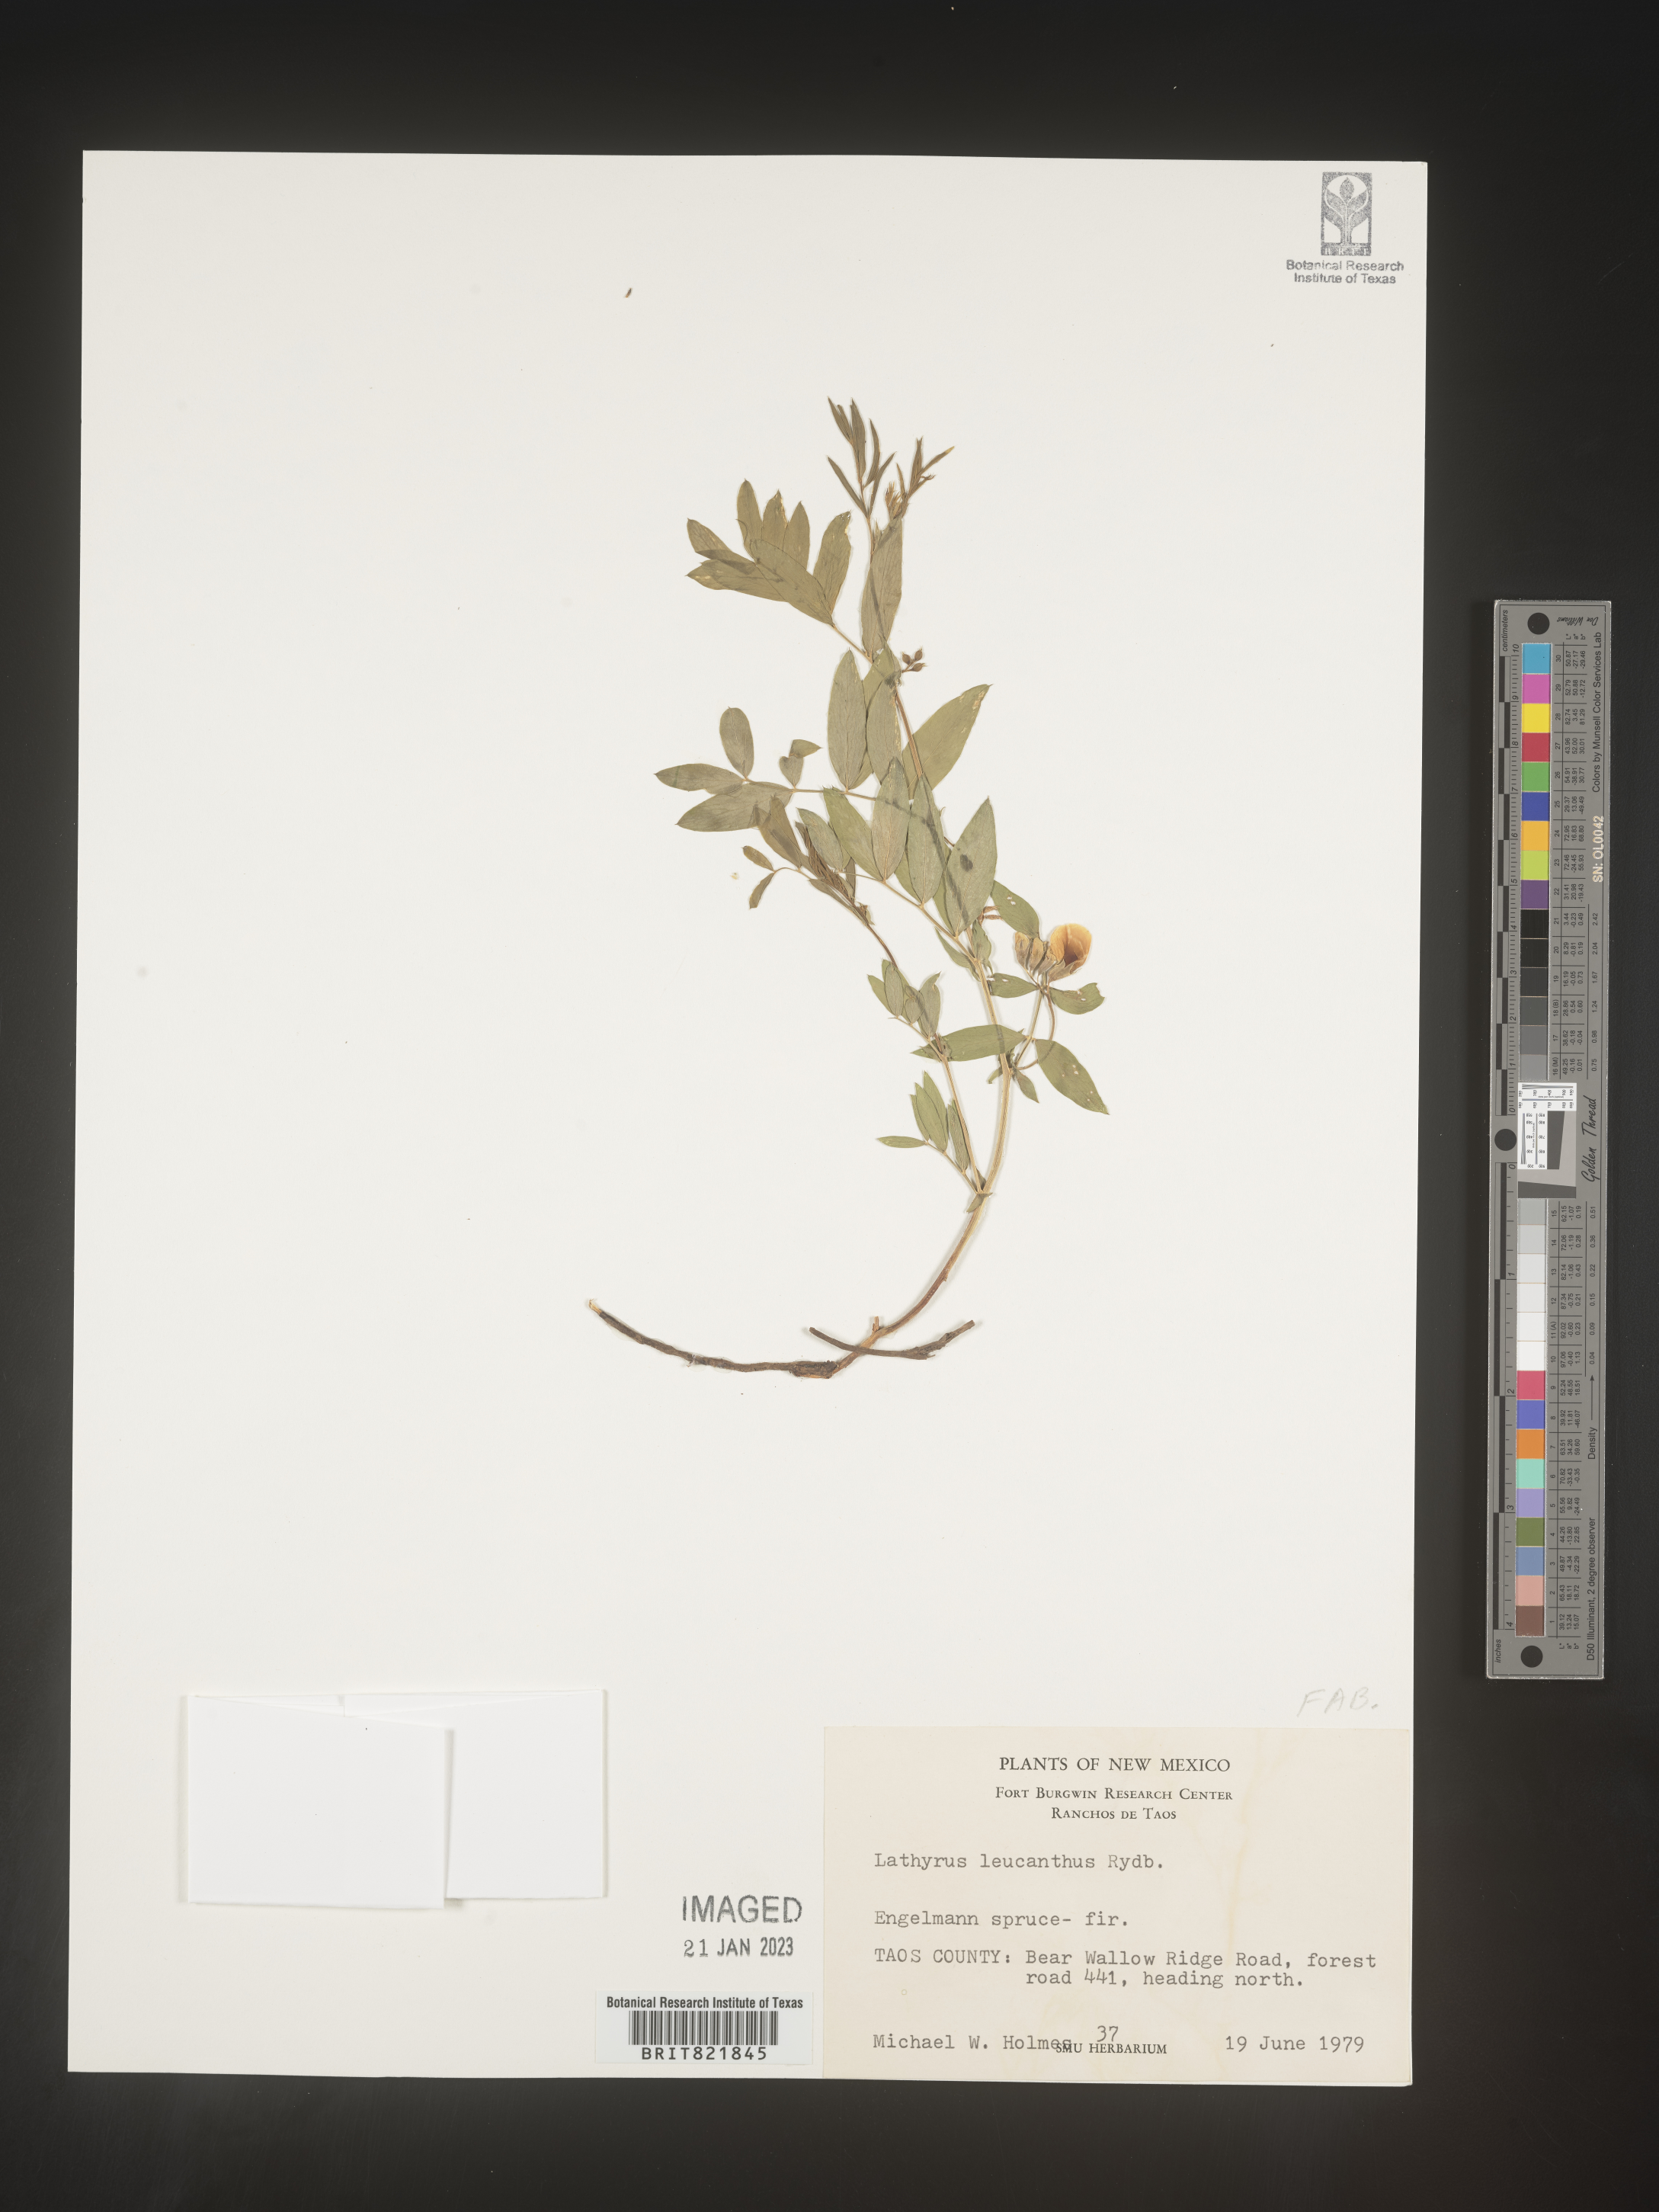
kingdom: Plantae
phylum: Tracheophyta
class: Magnoliopsida
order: Fabales
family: Fabaceae
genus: Lathyrus
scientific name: Lathyrus
